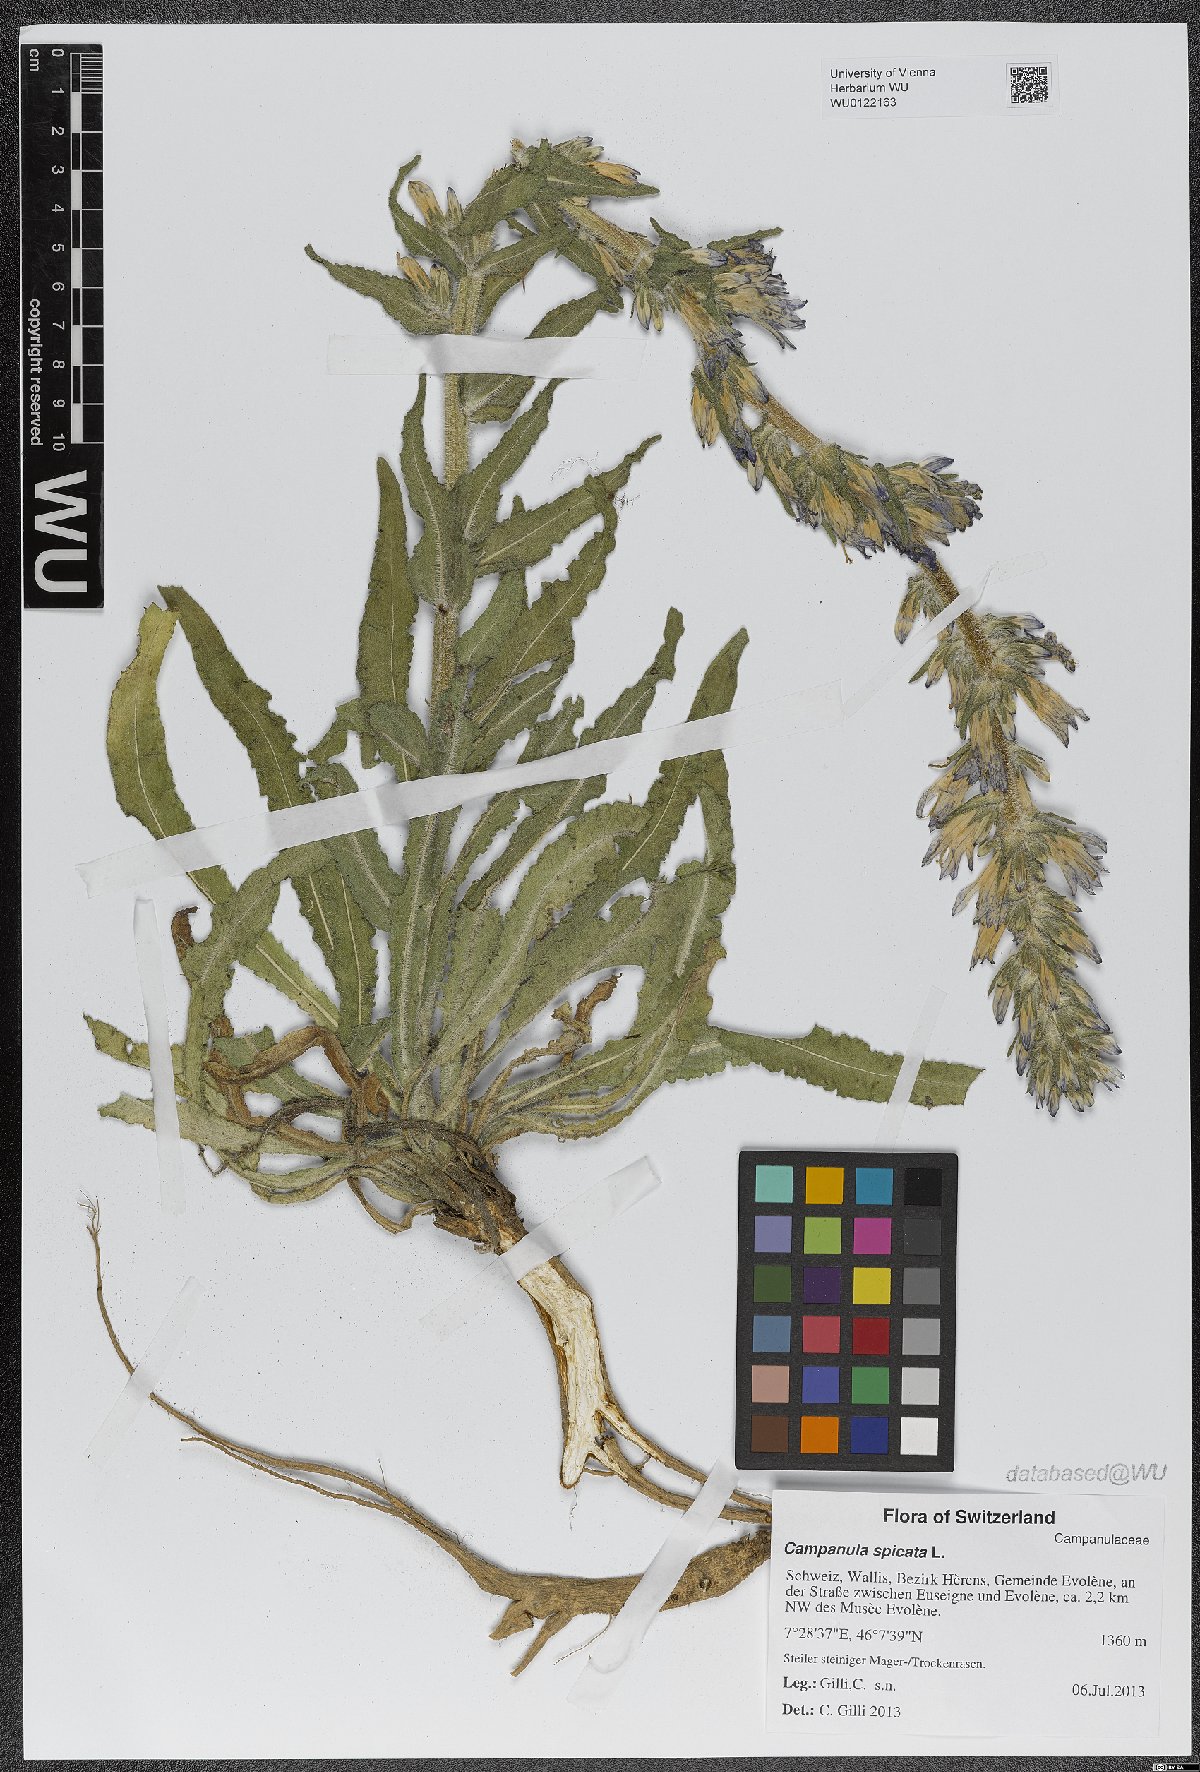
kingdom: Plantae
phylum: Tracheophyta
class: Magnoliopsida
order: Asterales
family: Campanulaceae
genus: Campanula
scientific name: Campanula spicata
